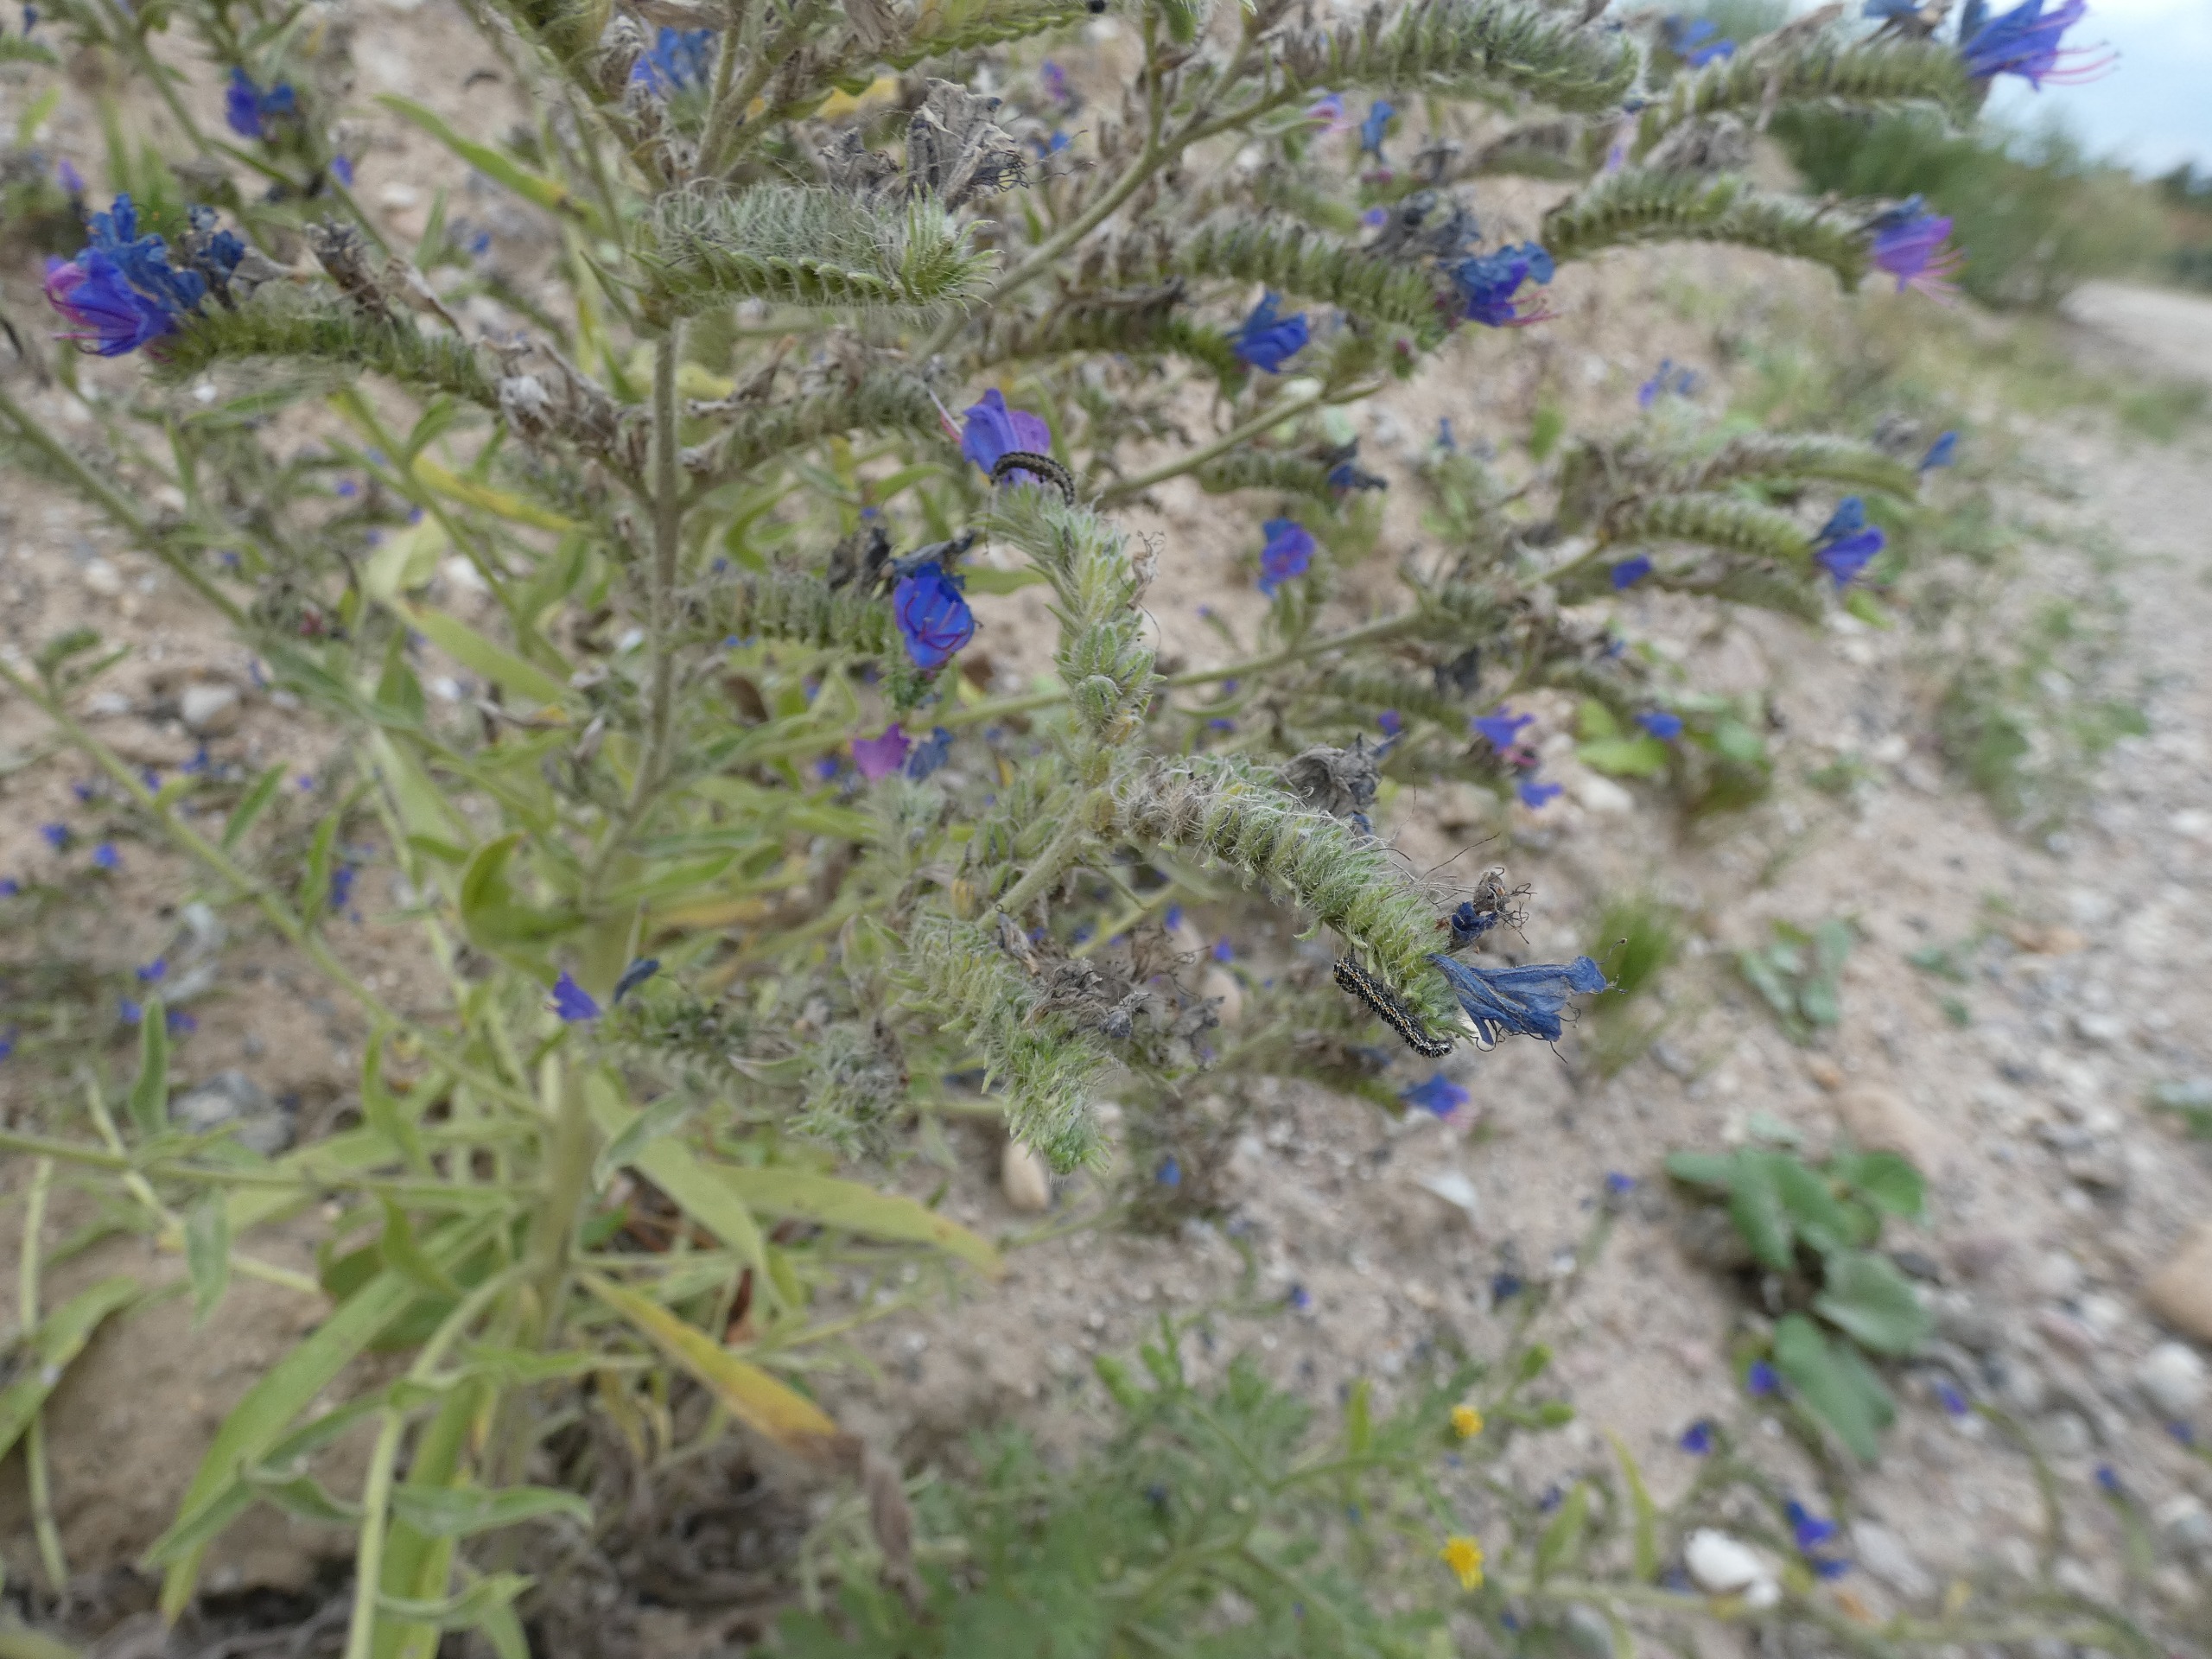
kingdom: Plantae
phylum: Tracheophyta
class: Magnoliopsida
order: Boraginales
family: Boraginaceae
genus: Echium
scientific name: Echium vulgare
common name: Slangehoved
